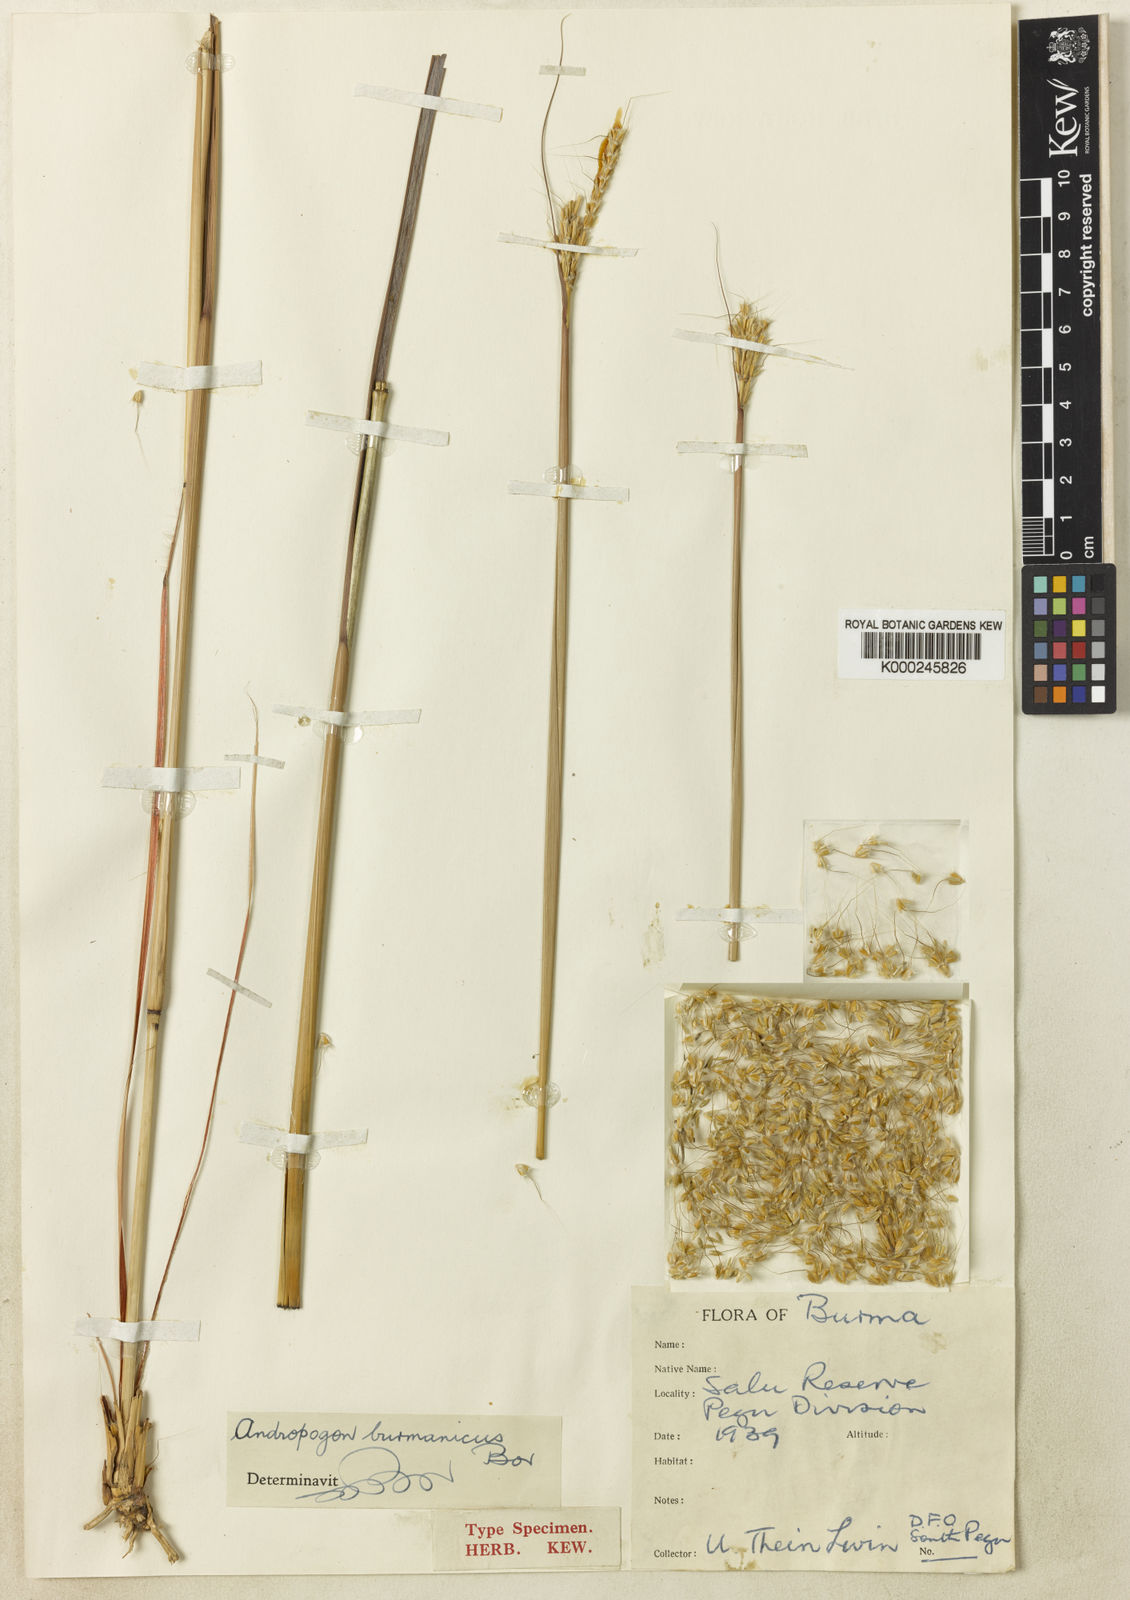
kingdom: Plantae
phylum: Tracheophyta
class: Liliopsida
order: Poales
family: Poaceae
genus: Andropogon
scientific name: Andropogon burmanicus
